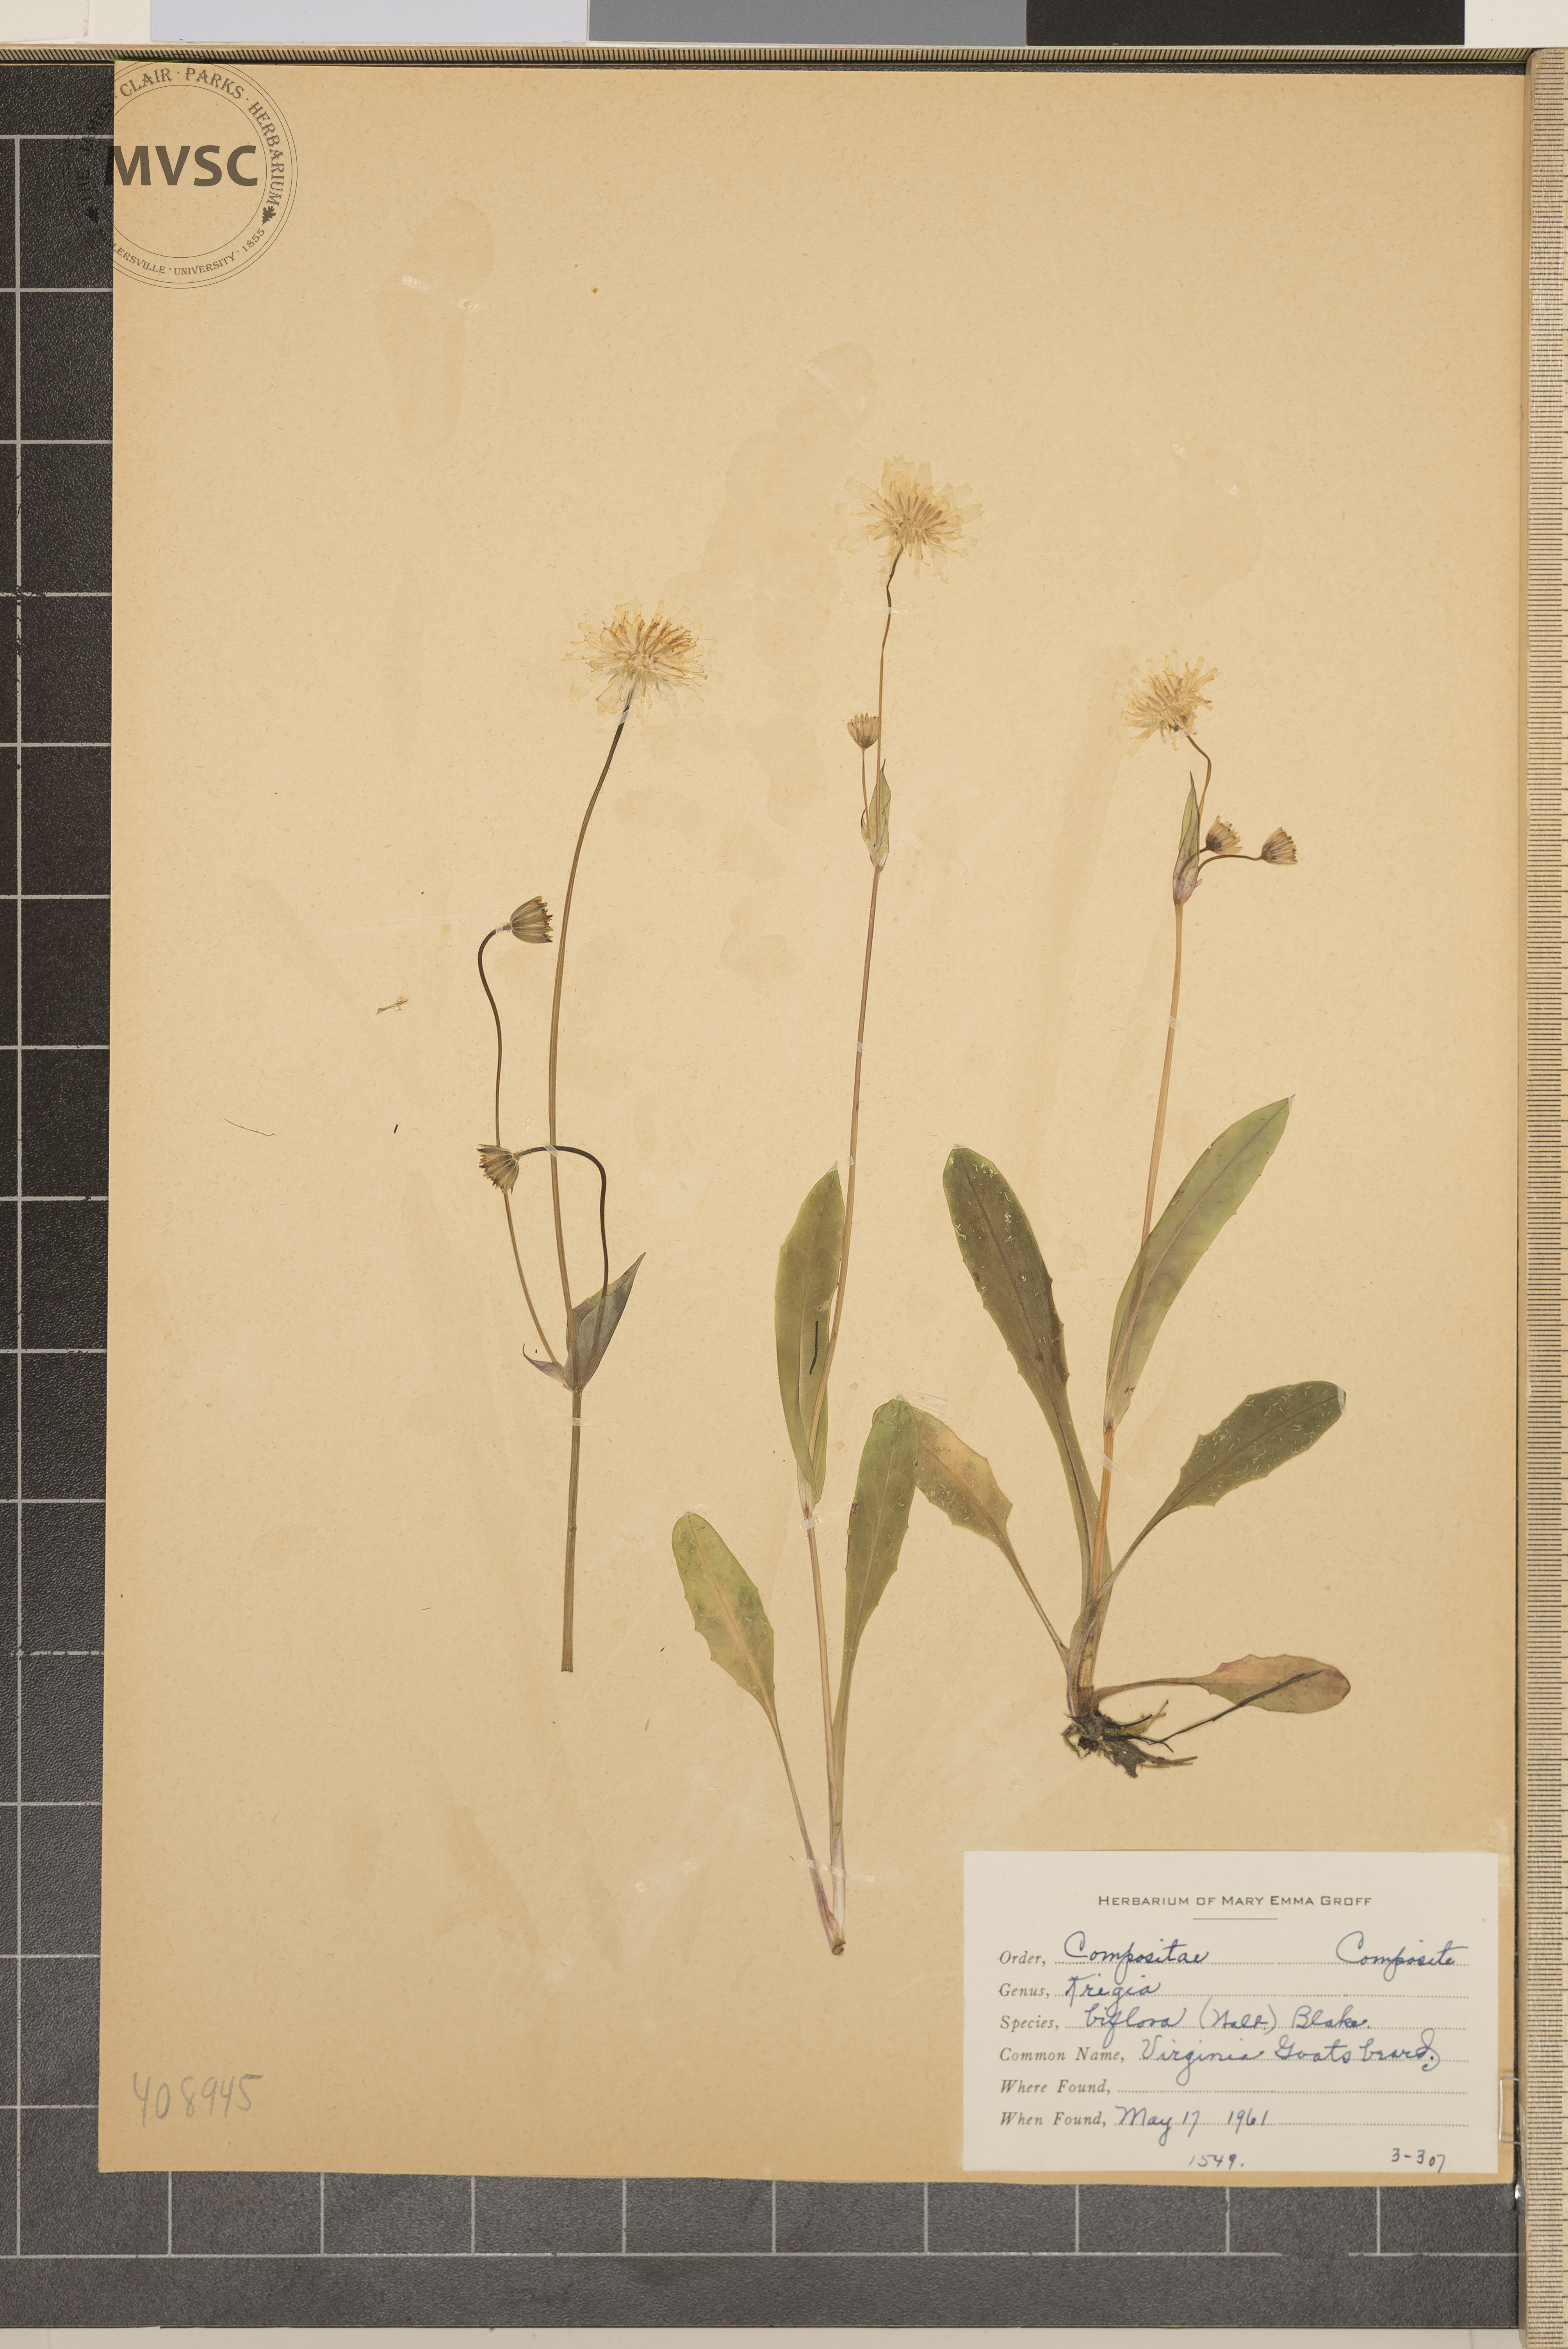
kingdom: Plantae
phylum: Tracheophyta
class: Magnoliopsida
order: Asterales
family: Asteraceae
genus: Krigia
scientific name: Krigia biflora
